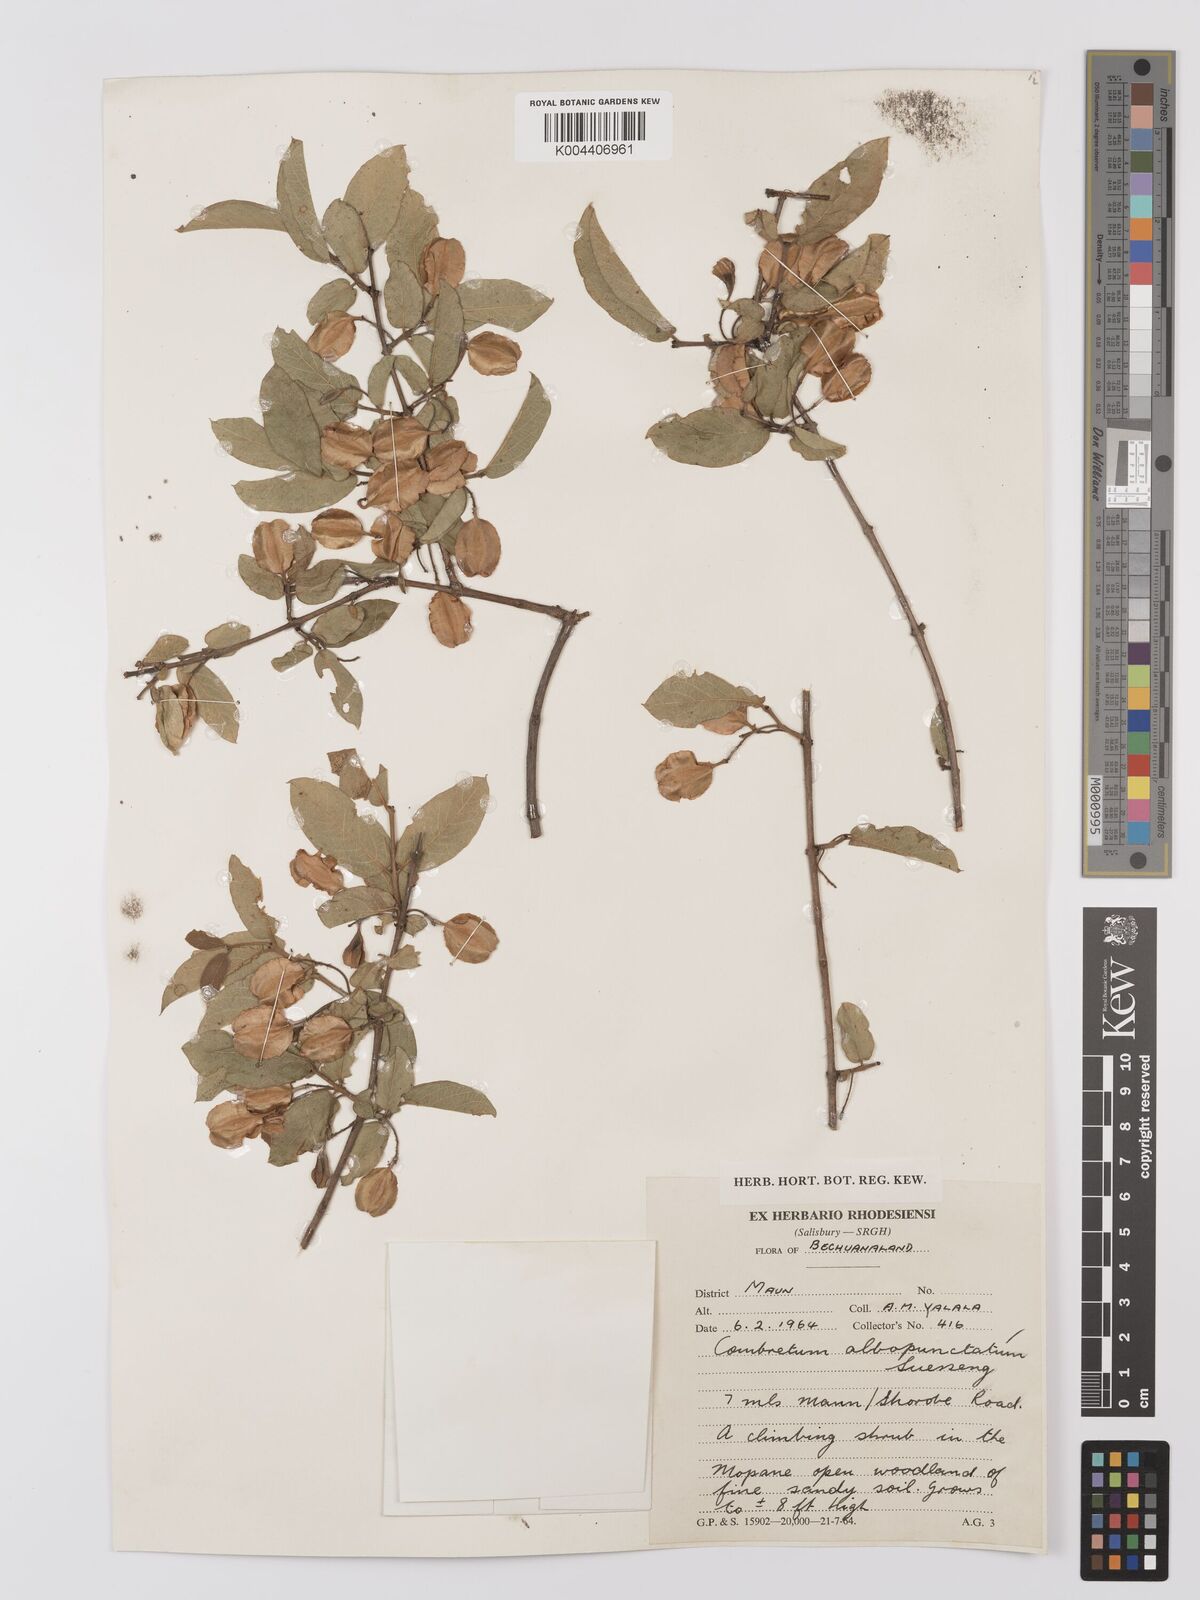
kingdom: Plantae
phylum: Tracheophyta
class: Magnoliopsida
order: Myrtales
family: Combretaceae
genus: Combretum
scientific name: Combretum albopunctatum
